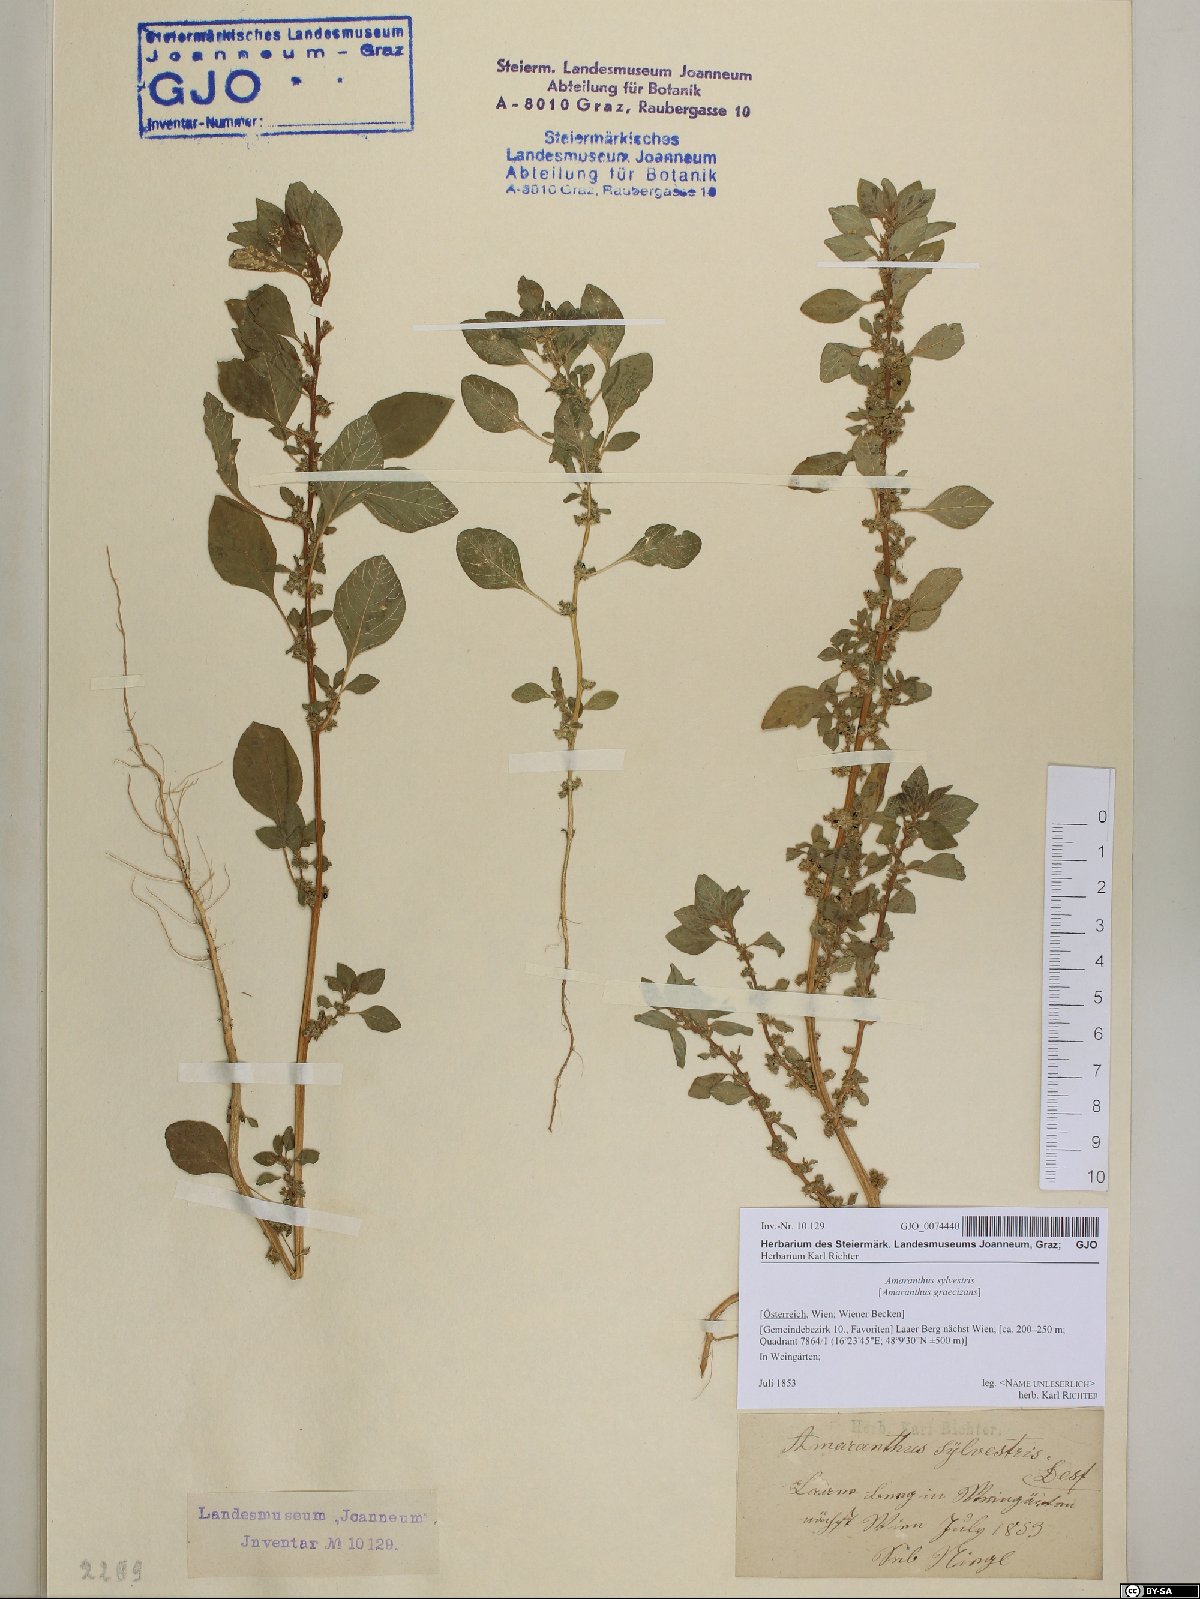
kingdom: Plantae
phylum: Tracheophyta
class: Magnoliopsida
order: Caryophyllales
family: Amaranthaceae
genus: Amaranthus
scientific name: Amaranthus graecizans
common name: Mediterranean amaranth
